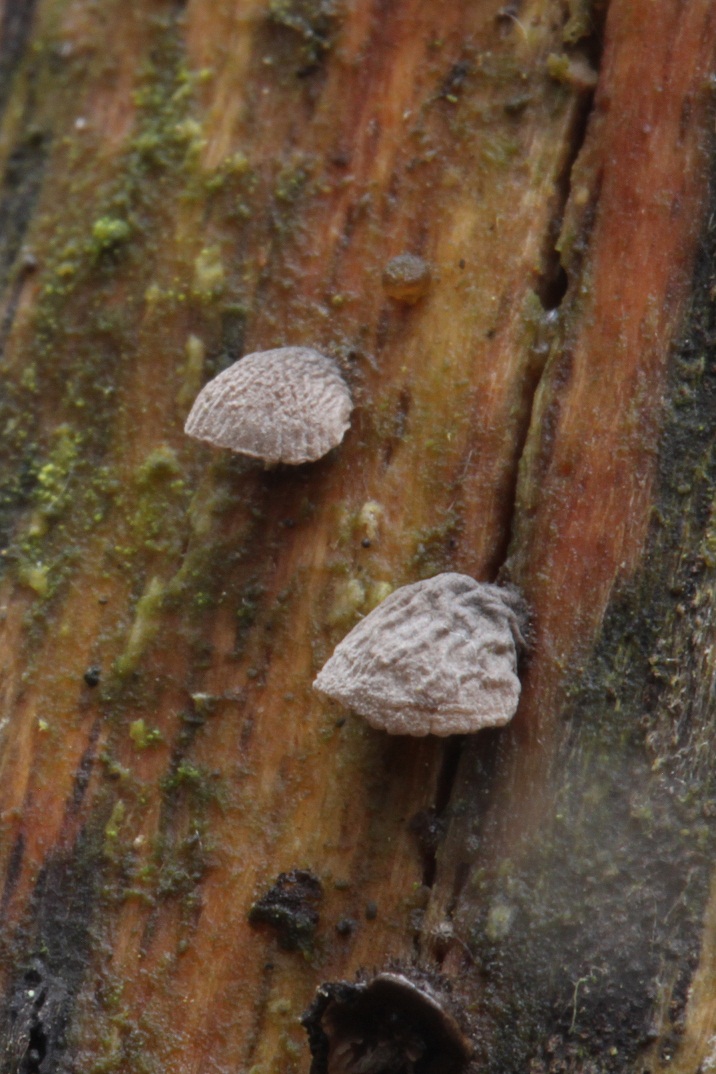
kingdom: Fungi
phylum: Basidiomycota
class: Agaricomycetes
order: Agaricales
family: Pleurotaceae
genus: Resupinatus
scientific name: Resupinatus trichotis
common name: mørkfiltet barkhat
